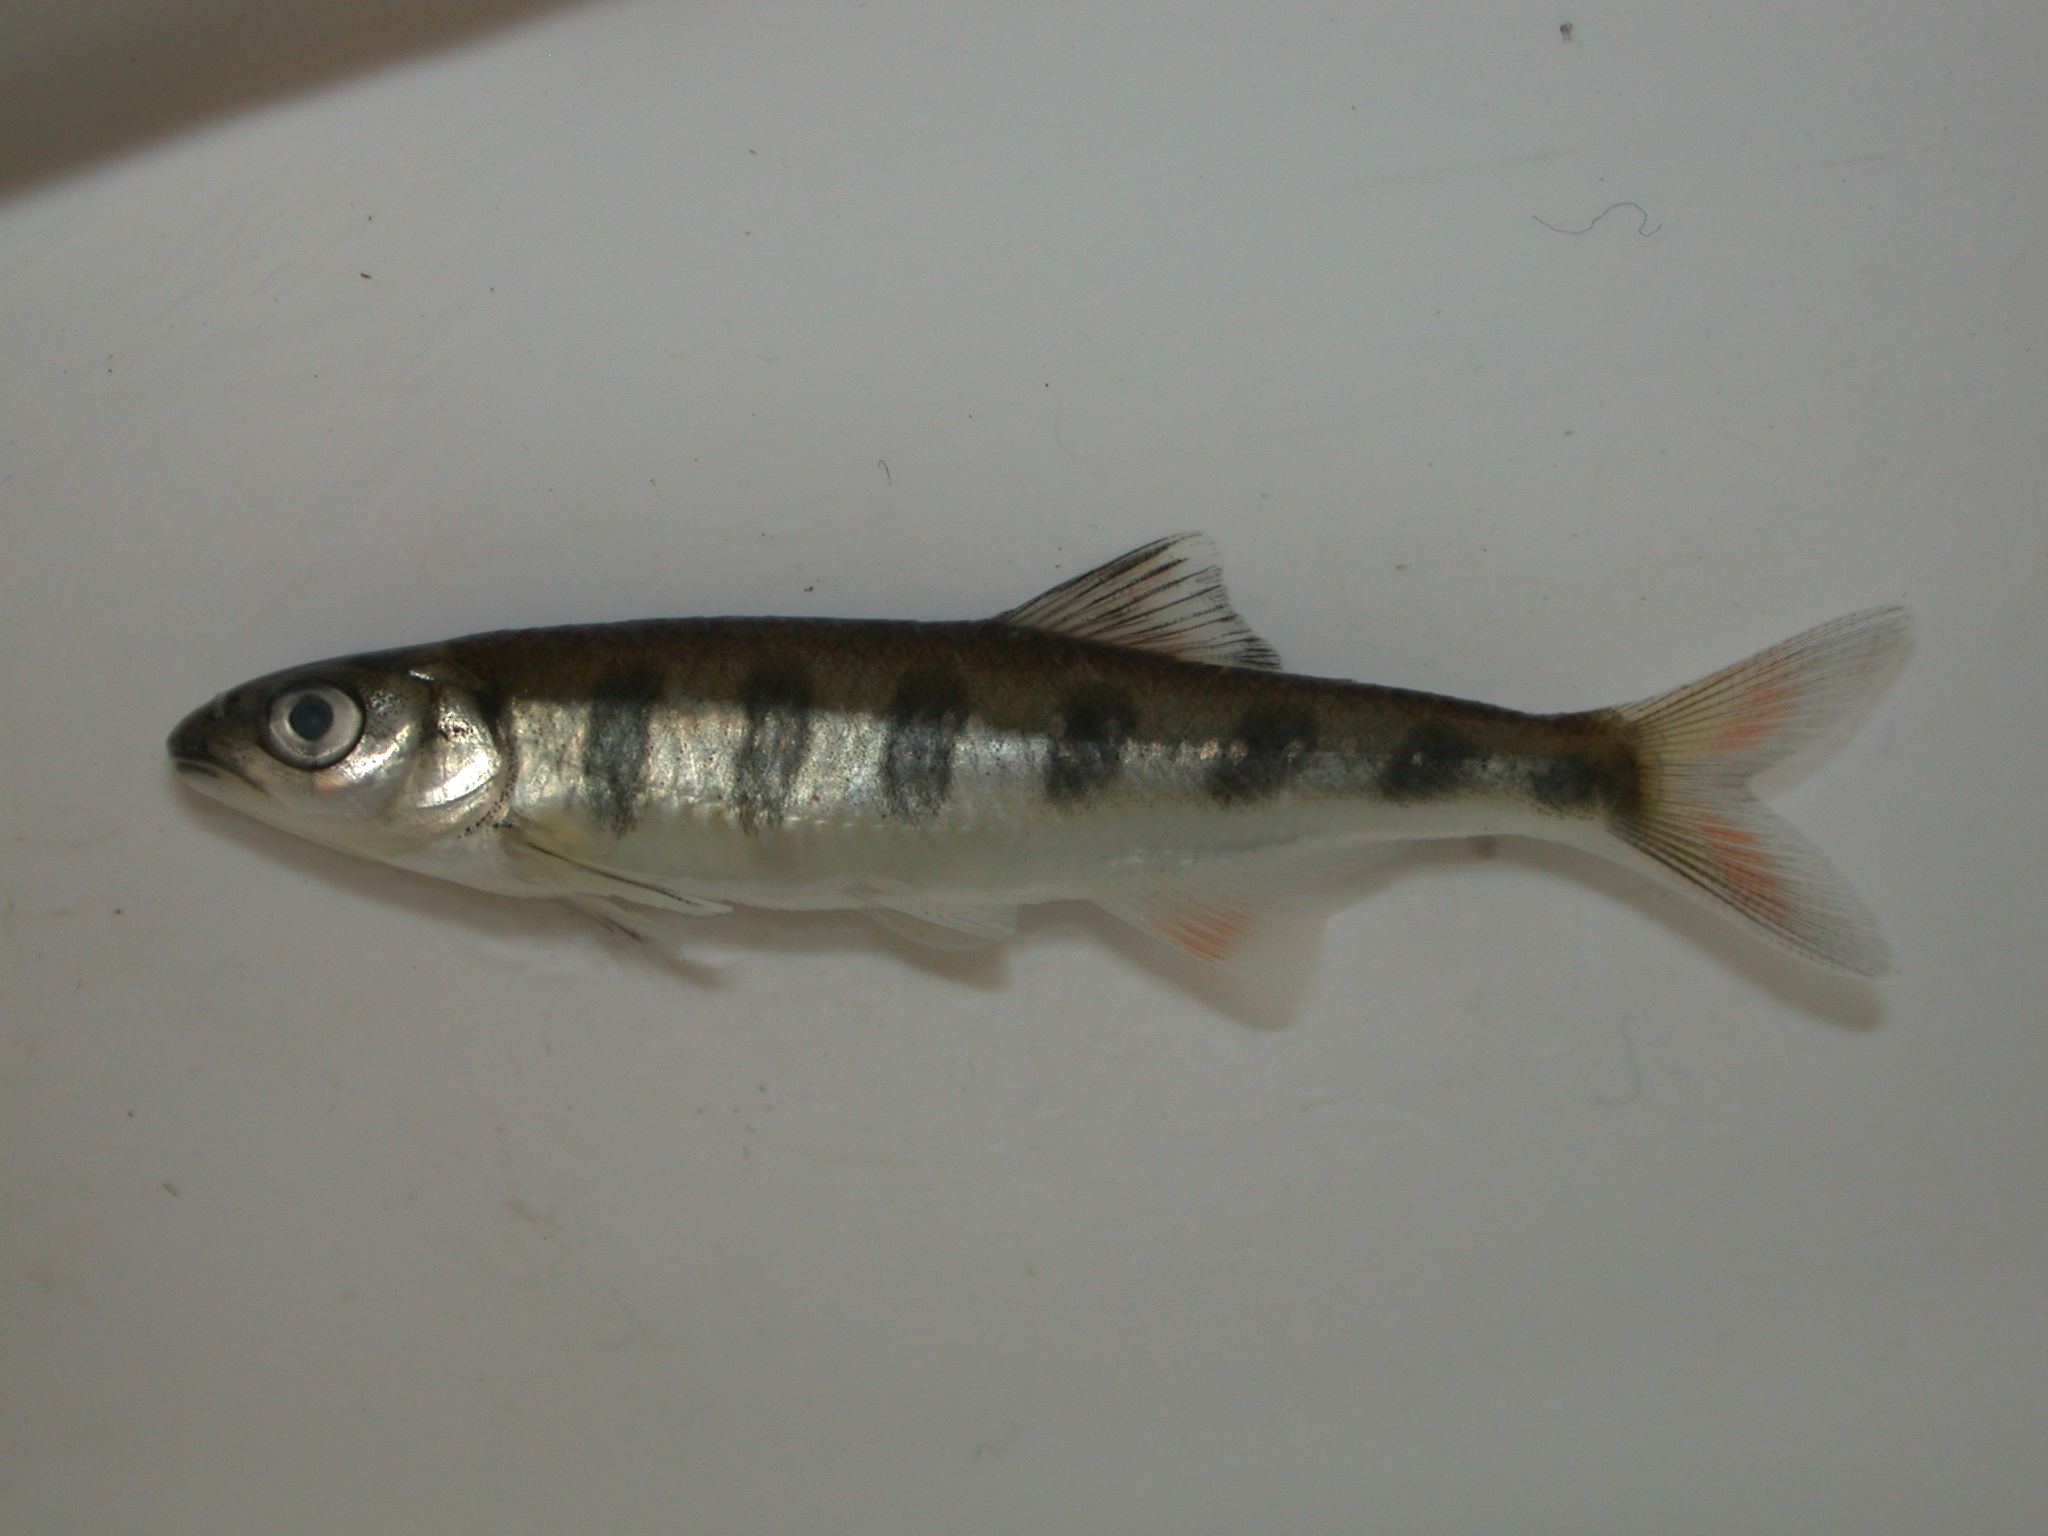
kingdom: Animalia
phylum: Chordata
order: Cypriniformes
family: Cyprinidae
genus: Opsaridium
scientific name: Opsaridium zambezense
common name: Barred minnow
